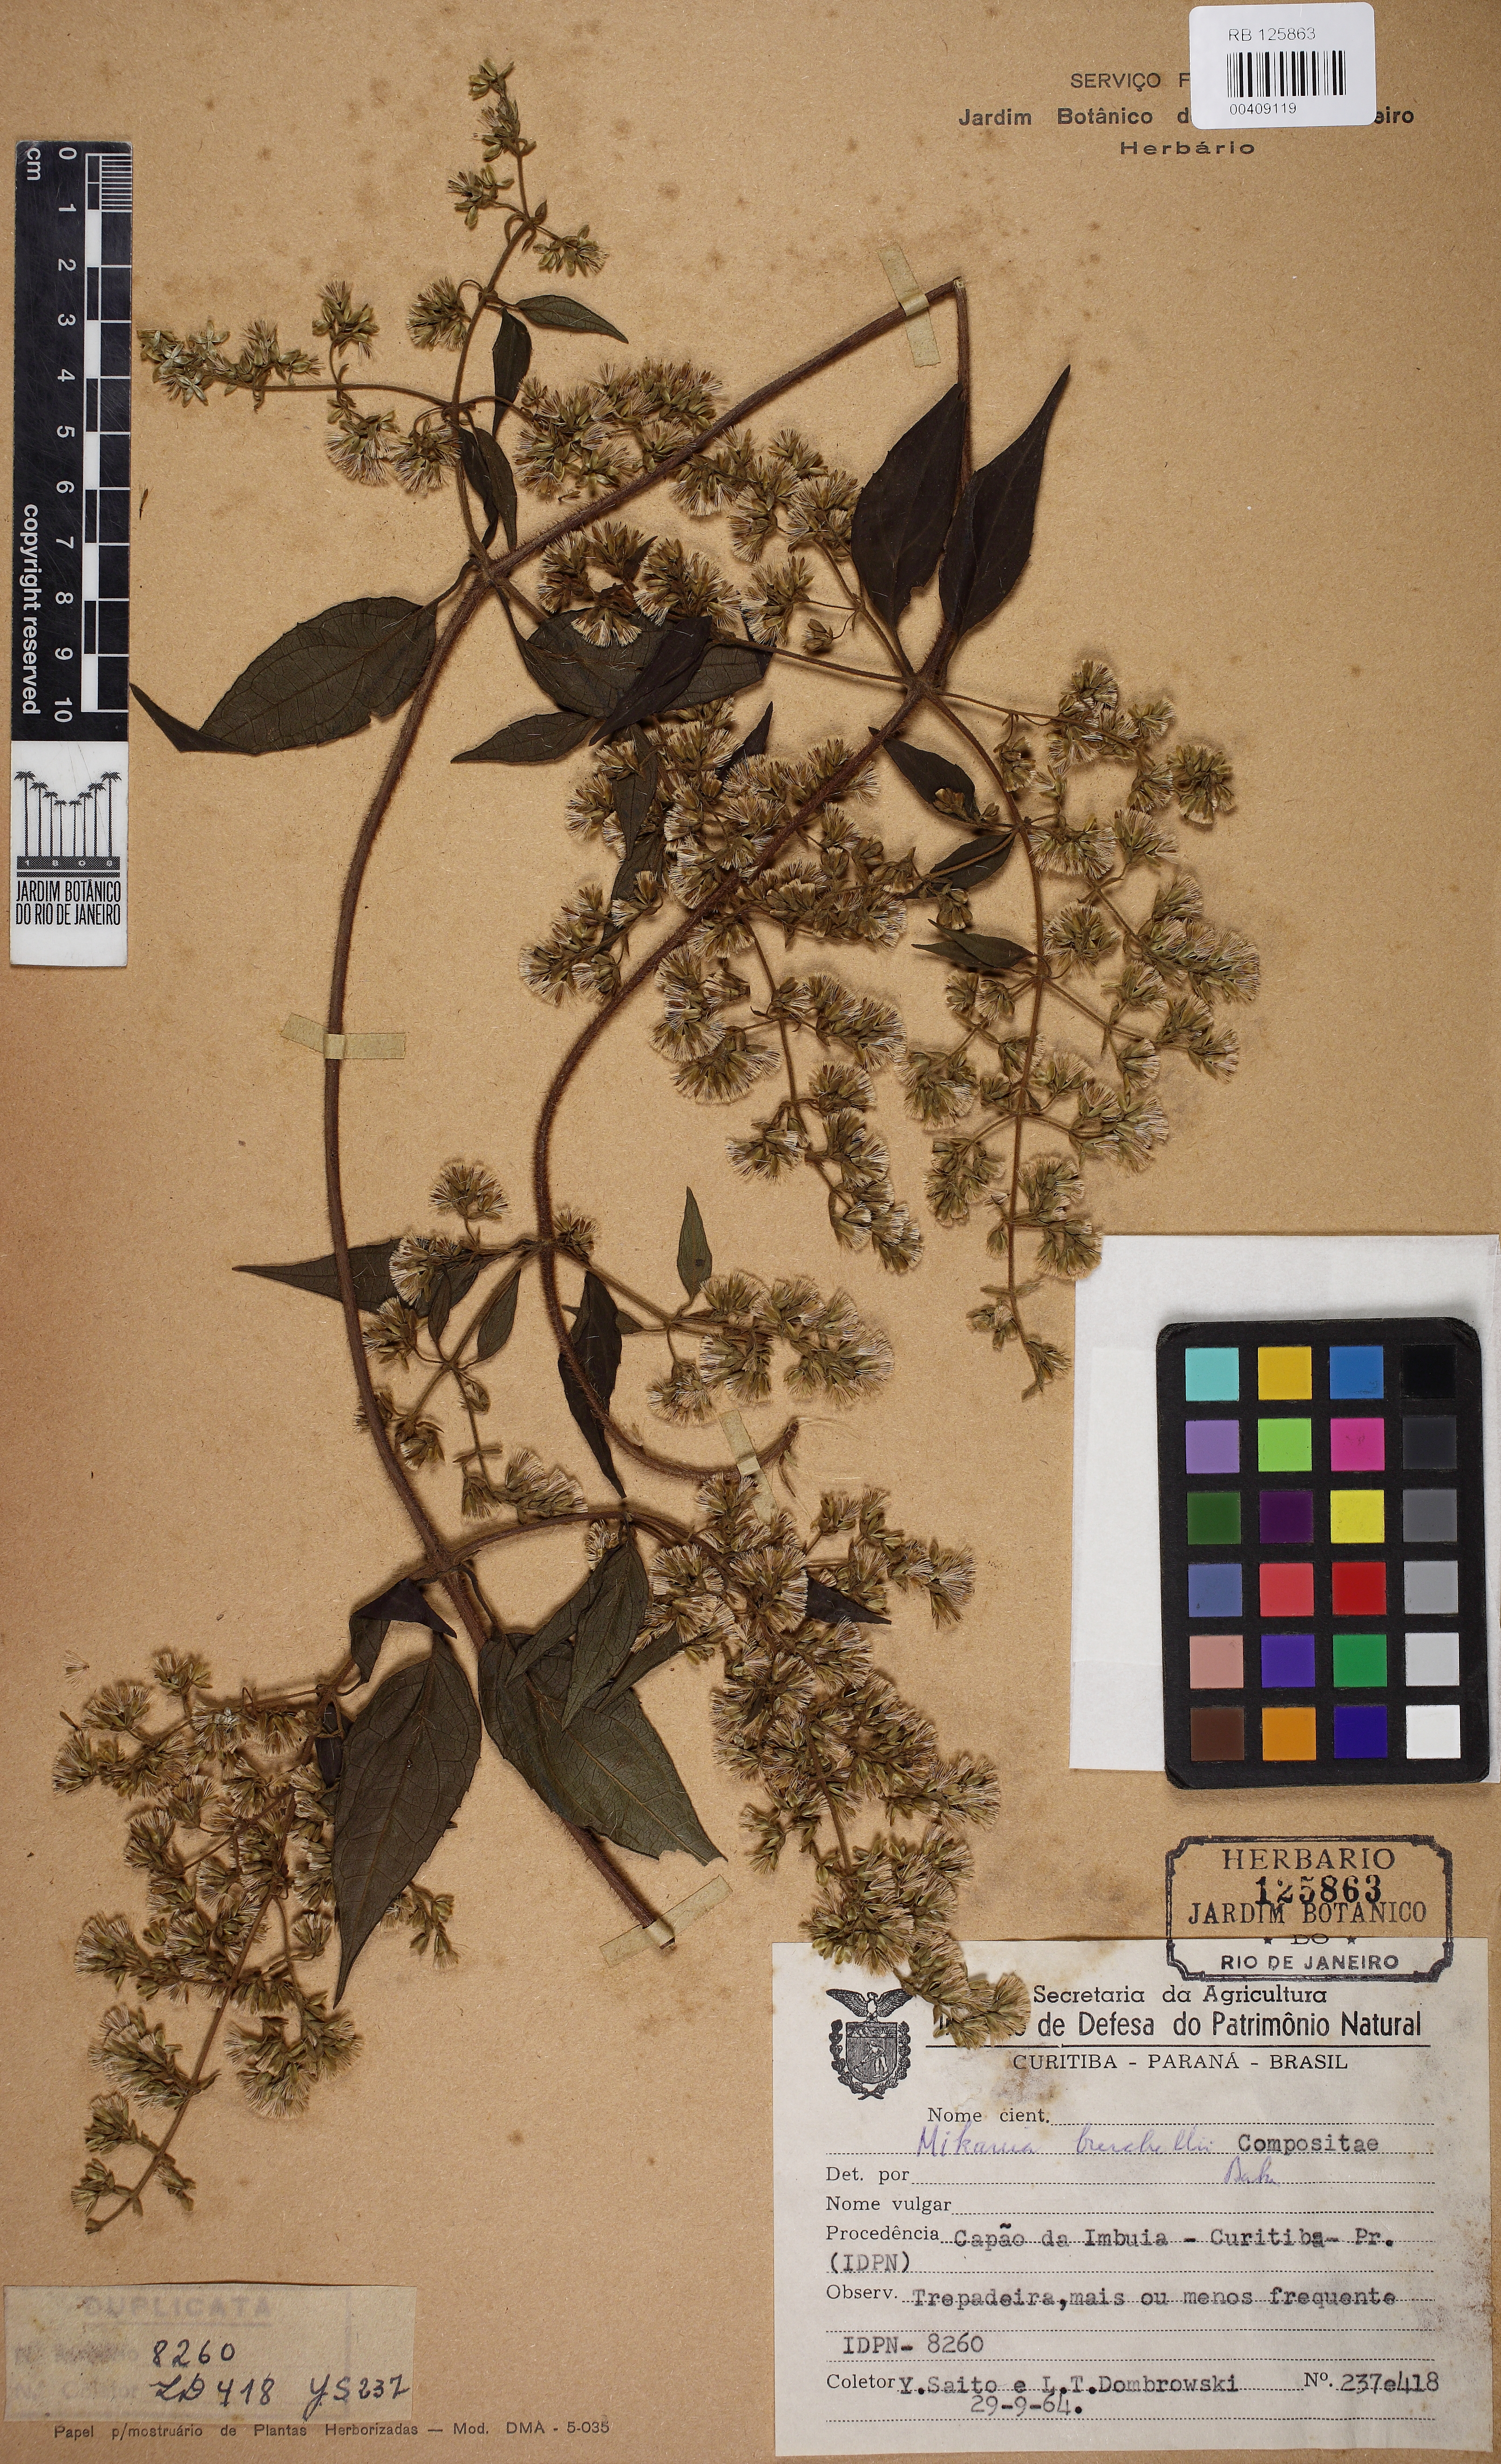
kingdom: Plantae
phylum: Tracheophyta
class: Magnoliopsida
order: Asterales
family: Asteraceae
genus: Mikania
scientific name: Mikania burchellii
